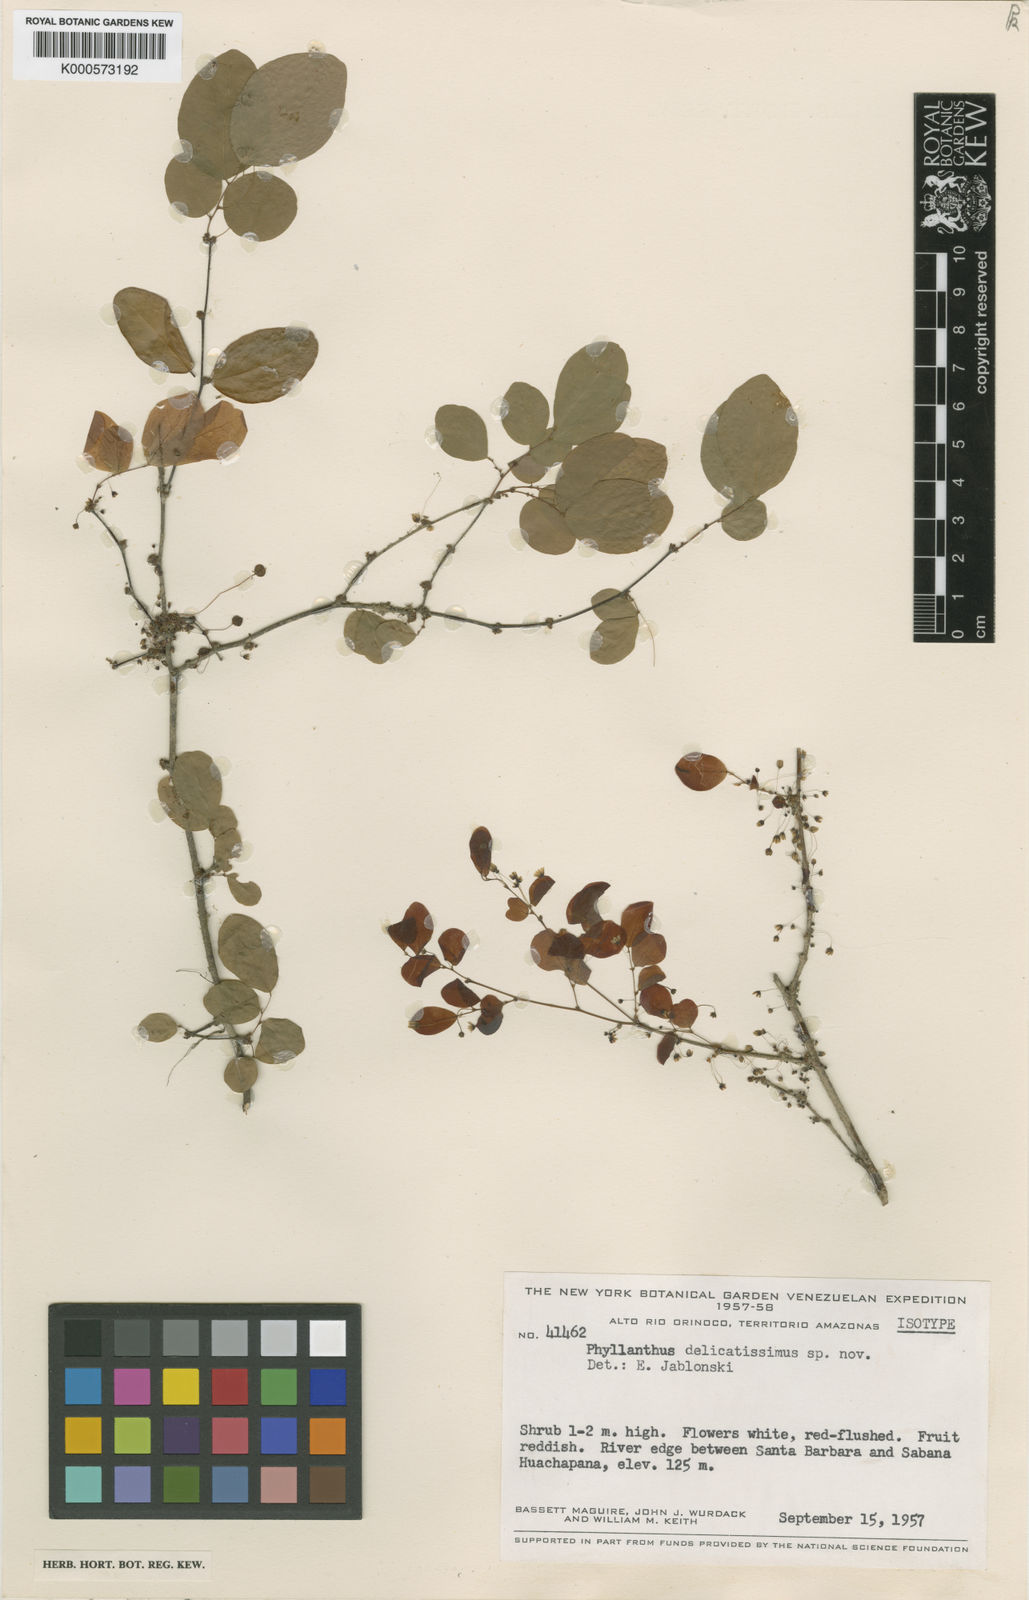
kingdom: Plantae
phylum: Tracheophyta
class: Magnoliopsida
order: Malpighiales
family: Phyllanthaceae
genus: Phyllanthus
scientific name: Phyllanthus rupestris
